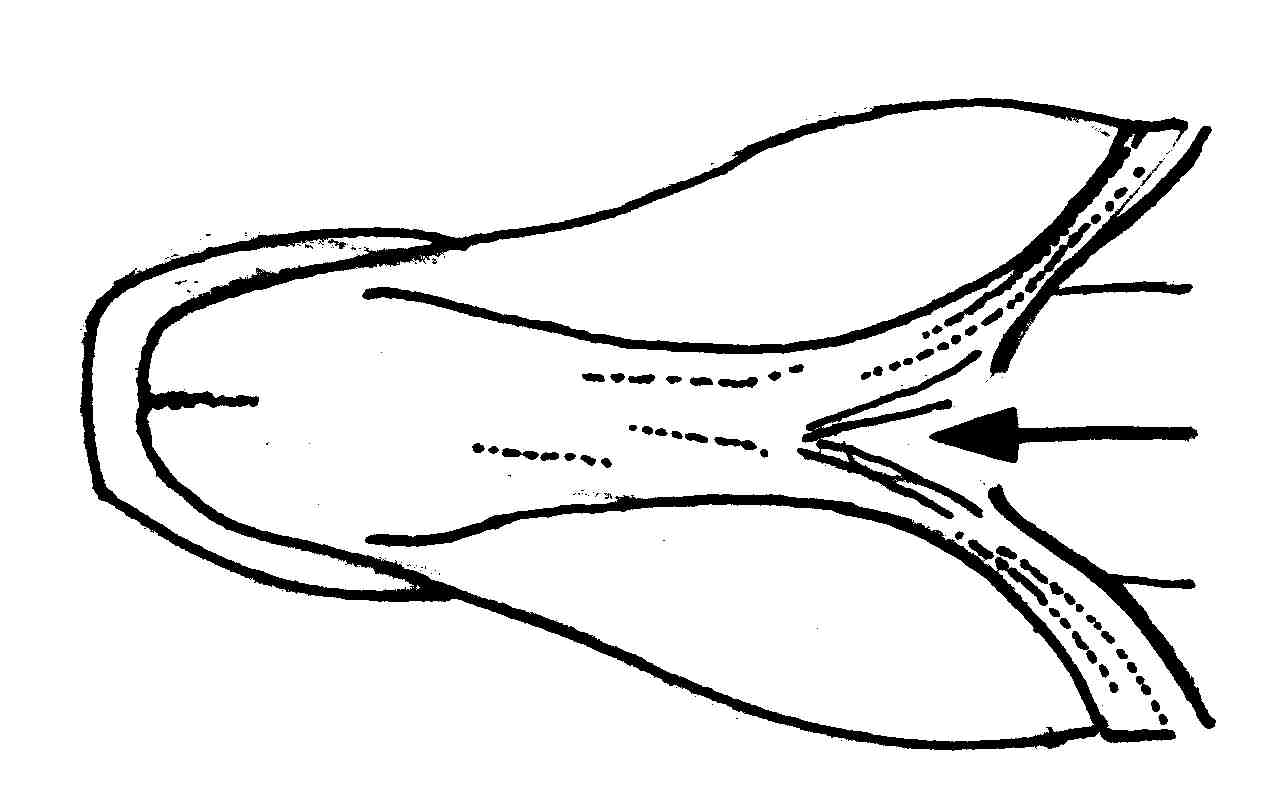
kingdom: Animalia
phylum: Chordata
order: Perciformes
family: Gobiidae
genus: Acentrogobius
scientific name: Acentrogobius
